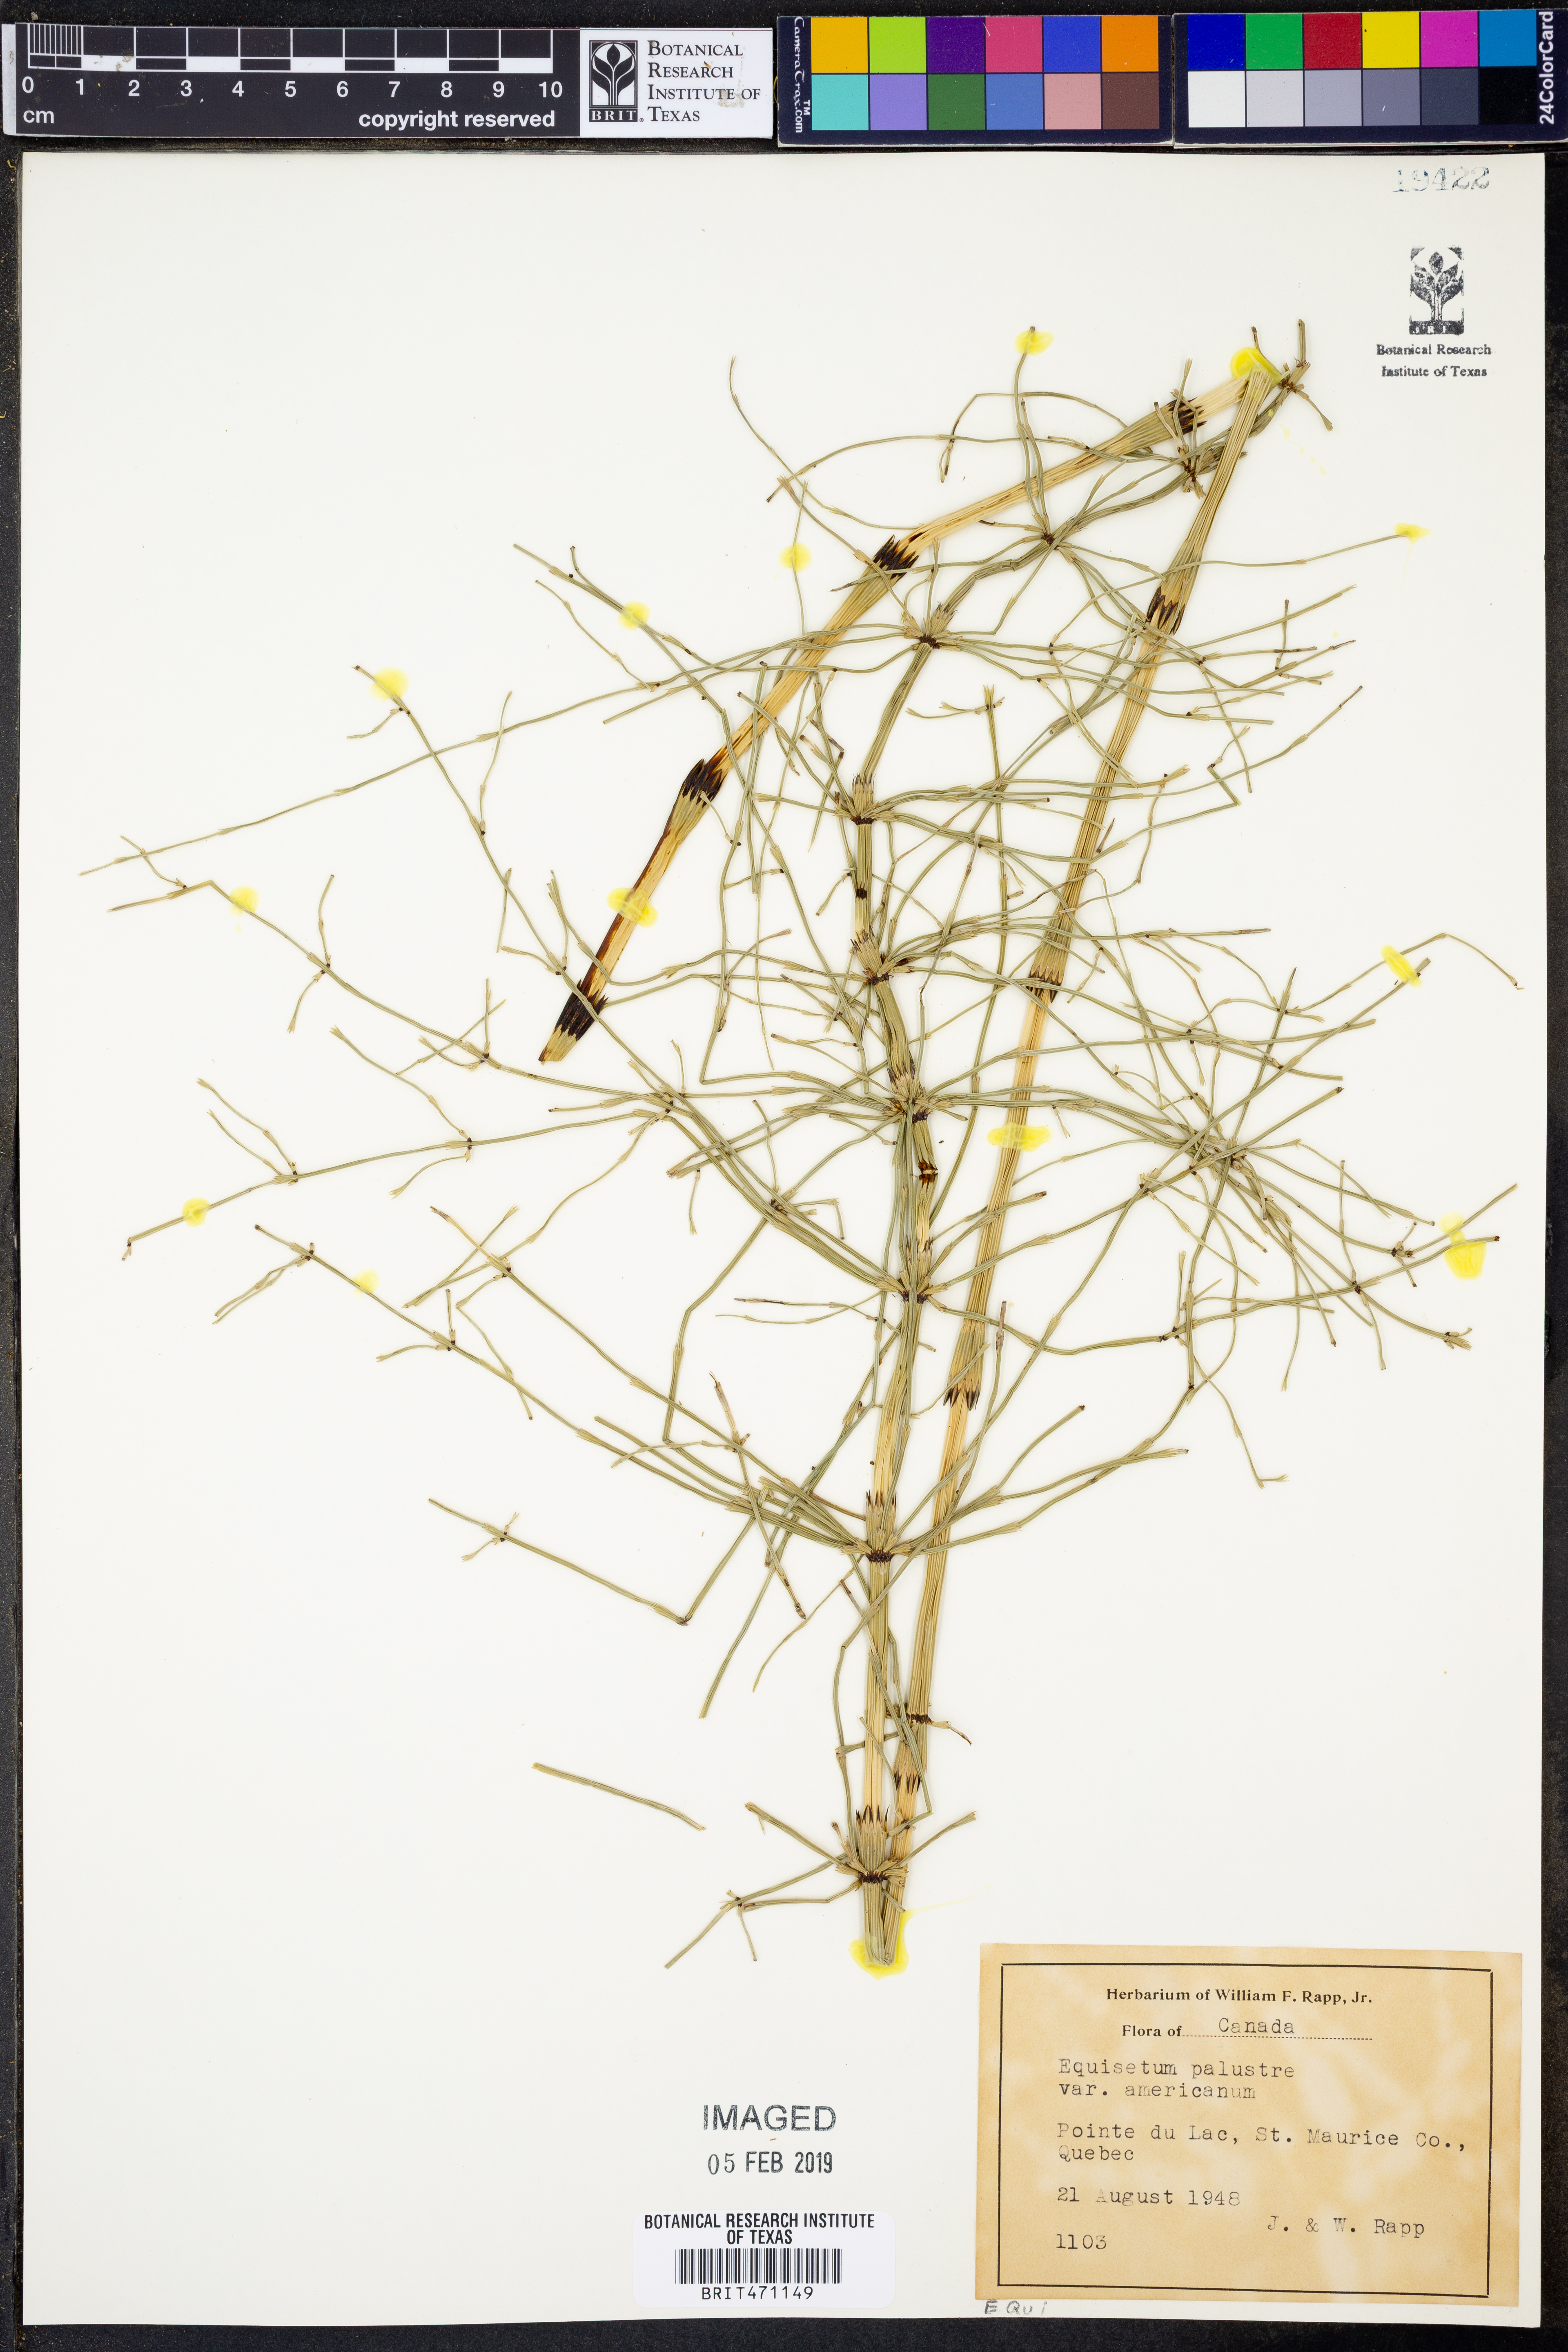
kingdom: Plantae
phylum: Tracheophyta
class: Polypodiopsida
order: Equisetales
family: Equisetaceae
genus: Equisetum
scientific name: Equisetum palustre
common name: Marsh horsetail
